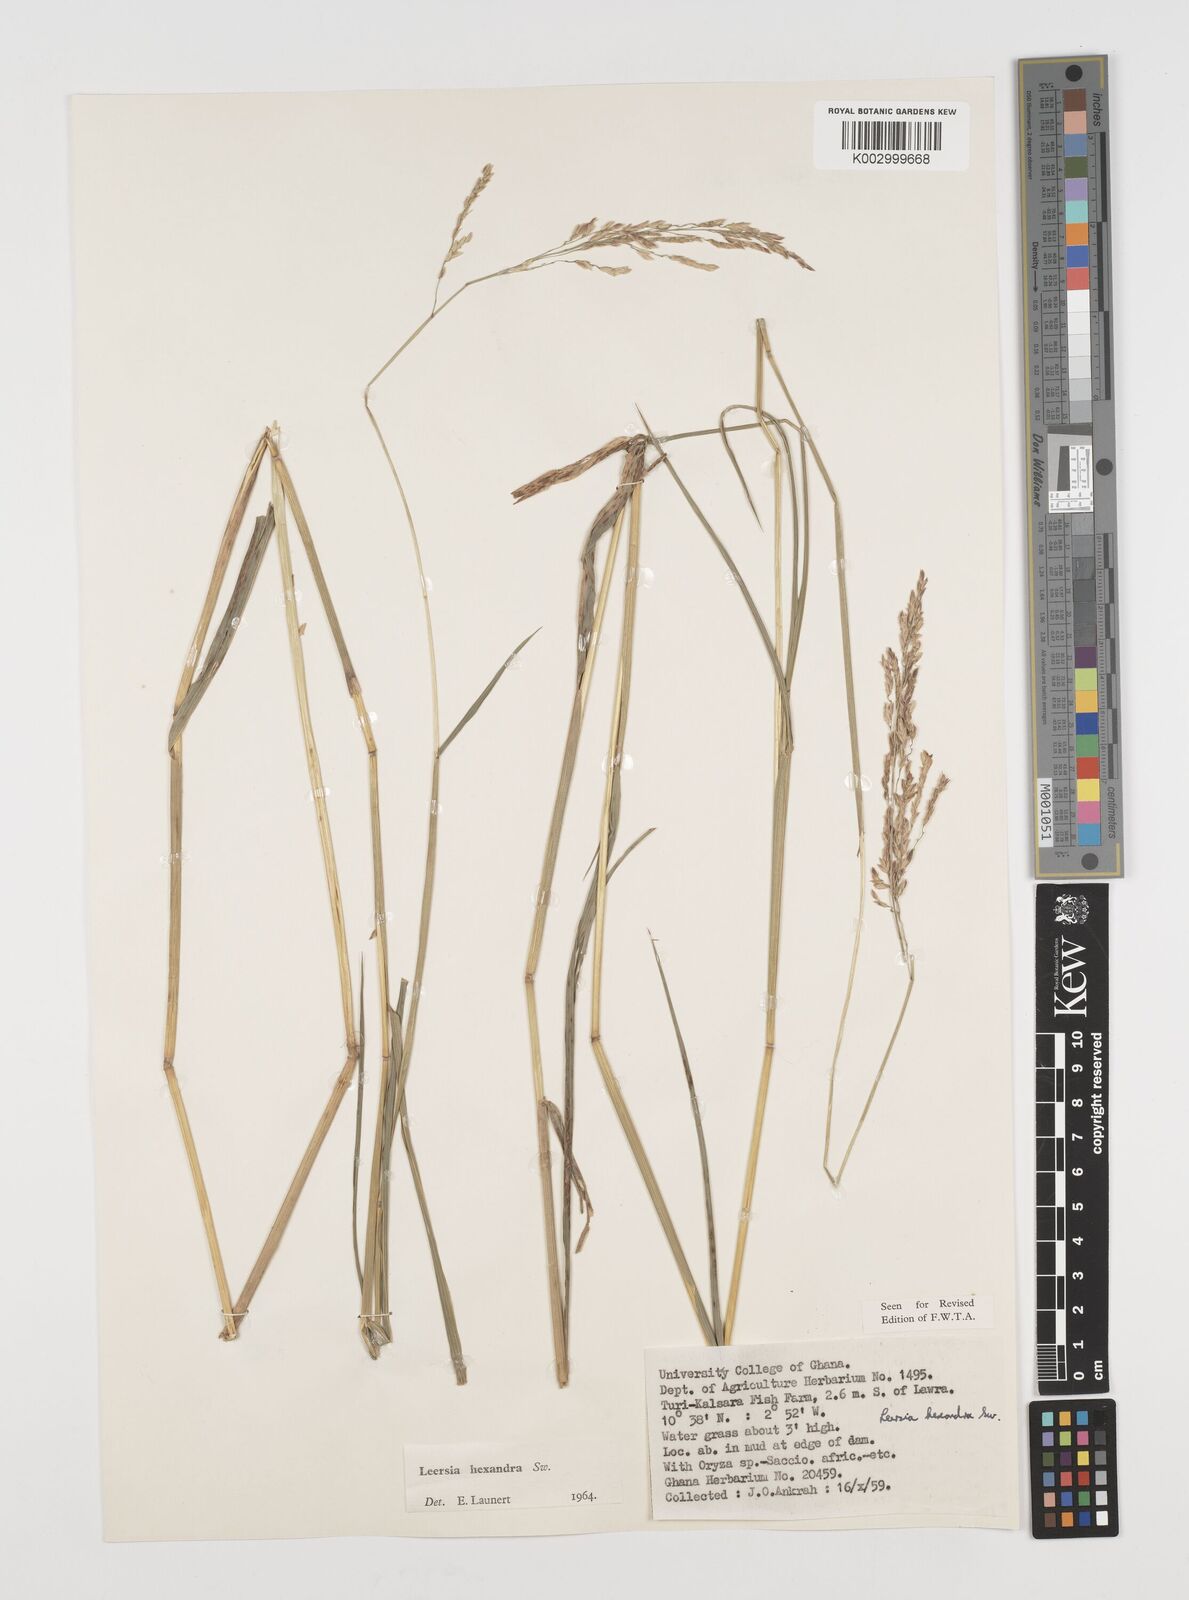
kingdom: Plantae
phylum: Tracheophyta
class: Liliopsida
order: Poales
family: Poaceae
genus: Leersia
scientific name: Leersia hexandra
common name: Southern cut grass
